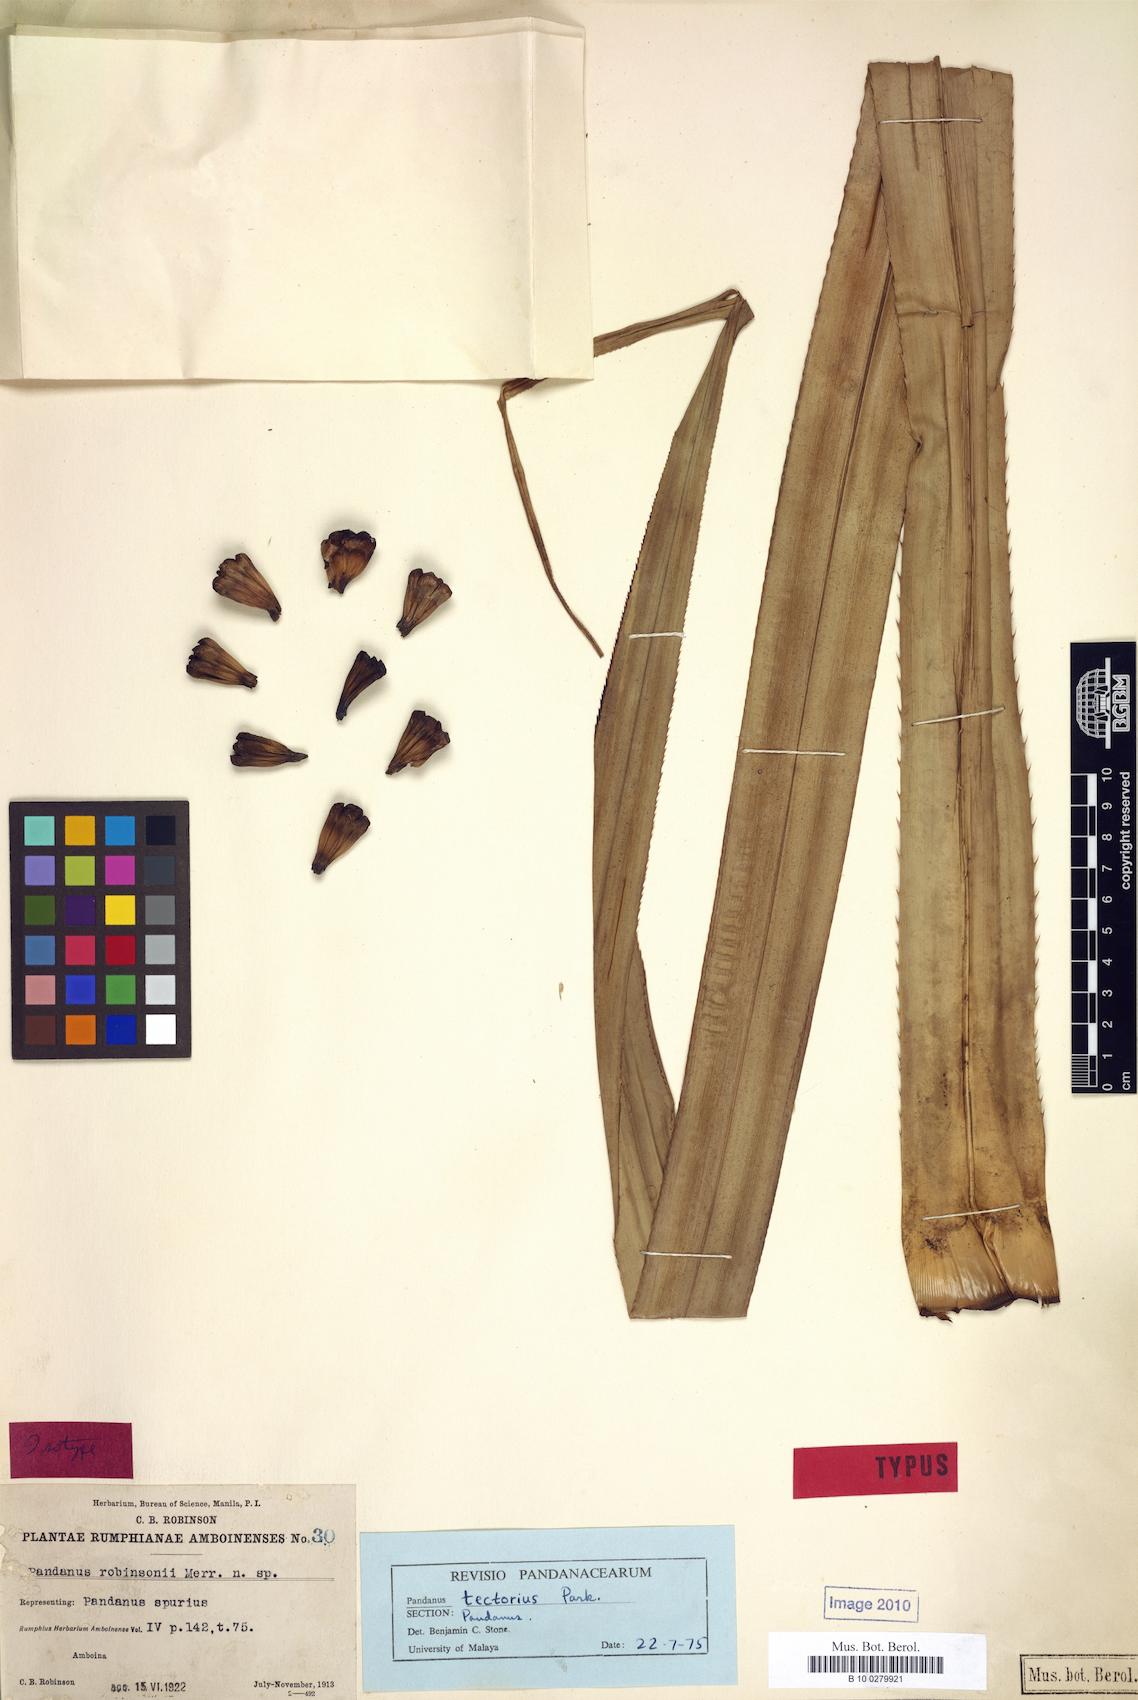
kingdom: Plantae
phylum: Tracheophyta
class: Liliopsida
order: Pandanales
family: Pandanaceae
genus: Pandanus
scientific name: Pandanus tectorius
